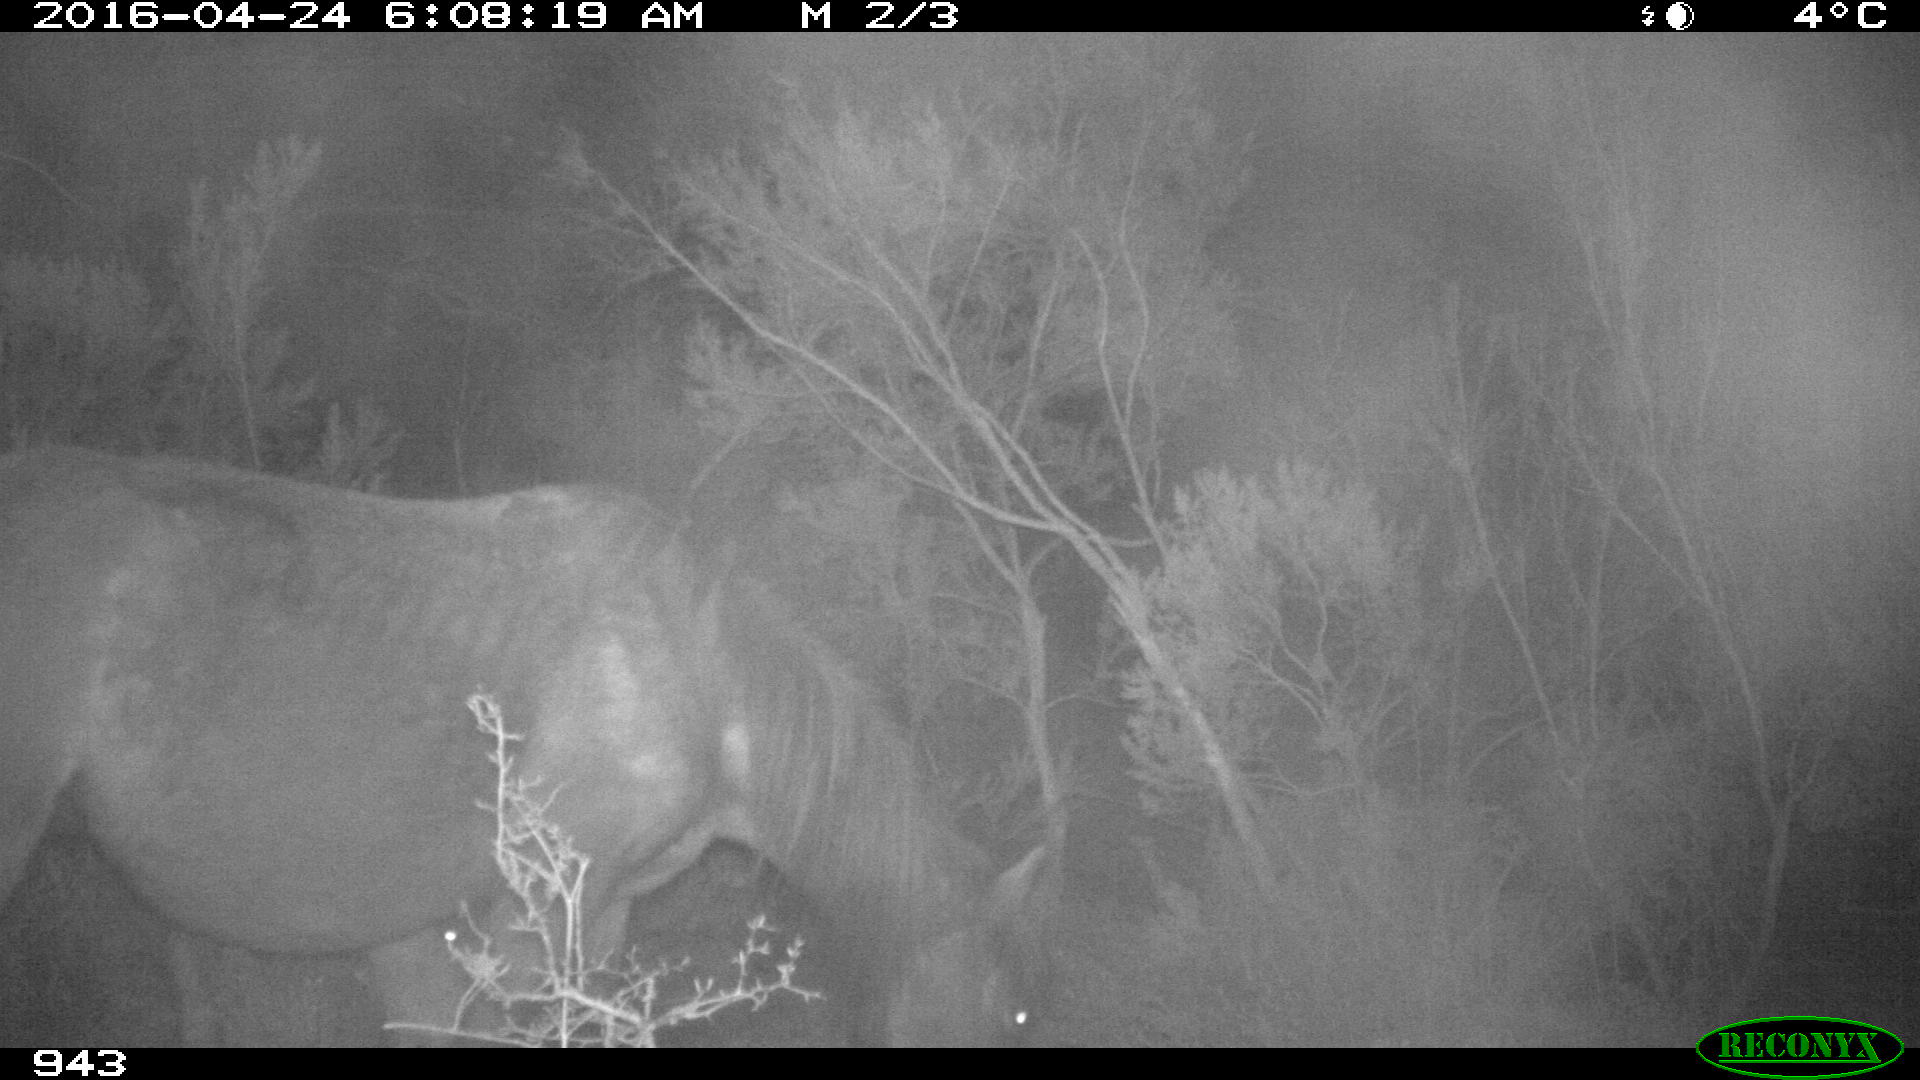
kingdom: Animalia
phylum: Chordata
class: Mammalia
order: Perissodactyla
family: Equidae
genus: Equus
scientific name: Equus caballus
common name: Horse
